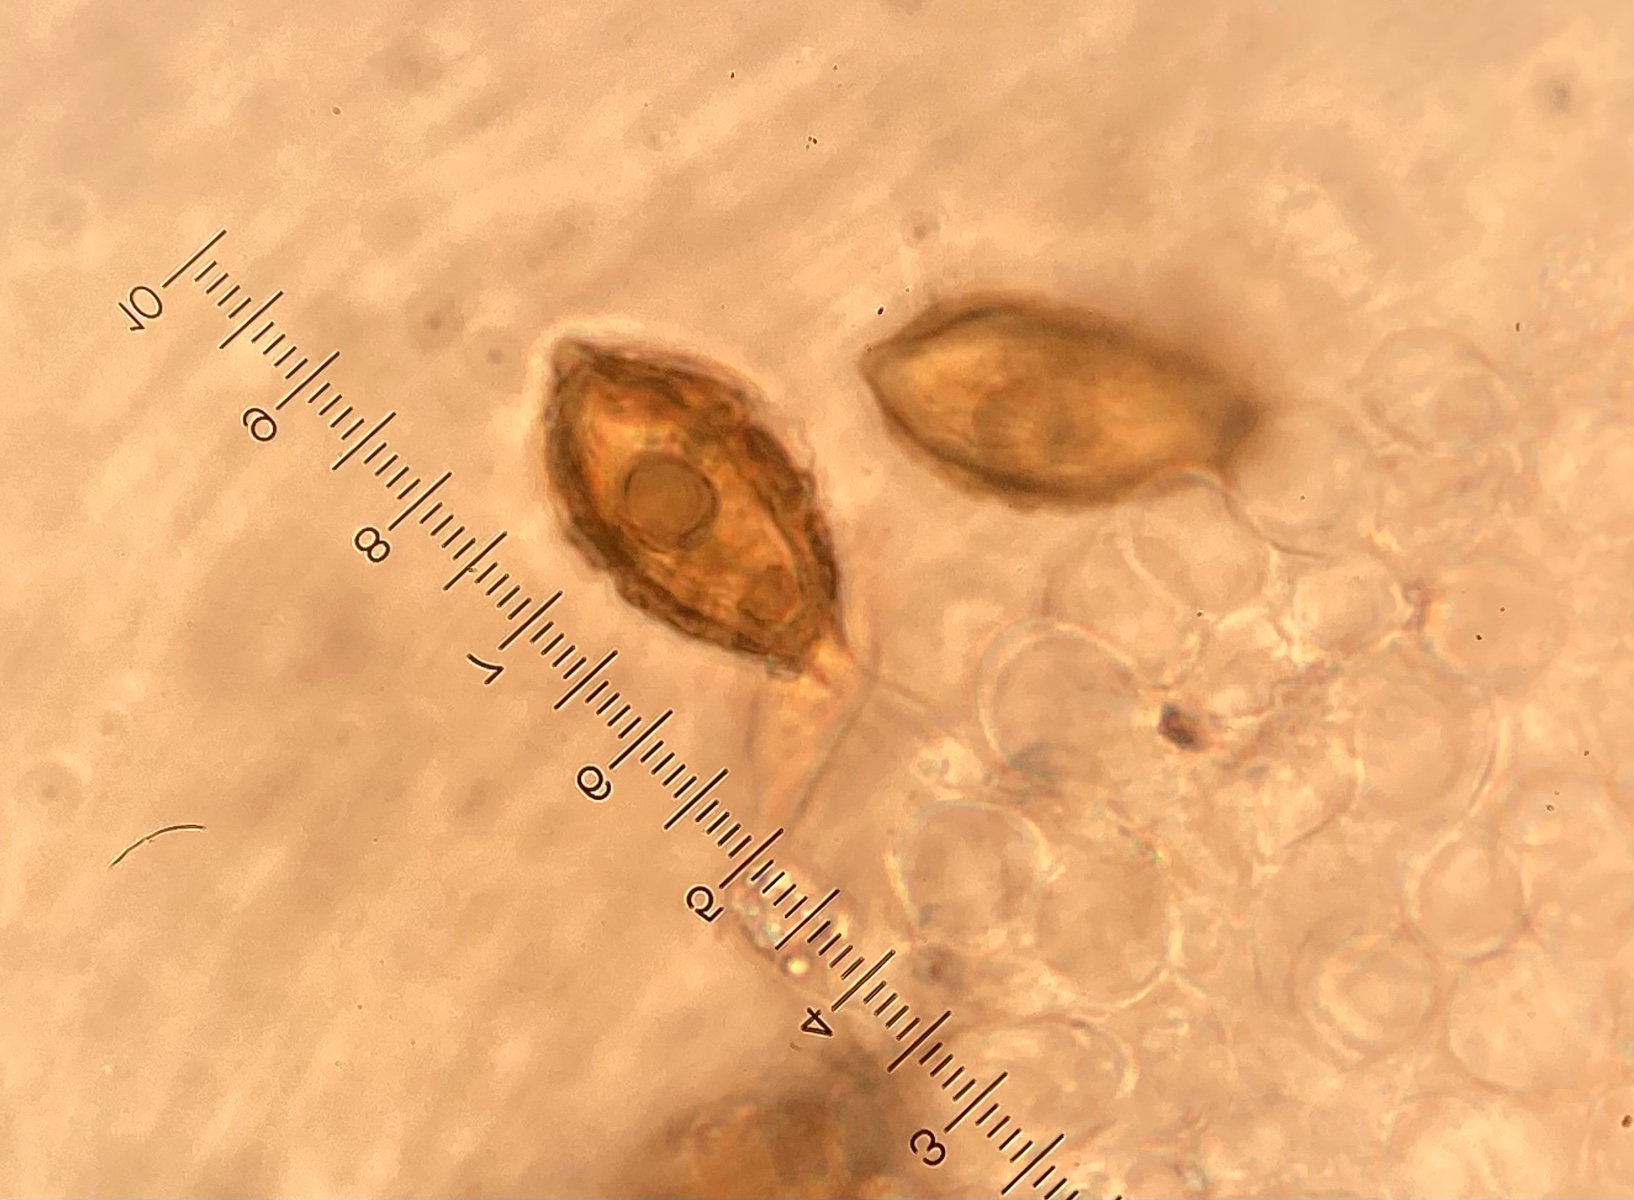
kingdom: Fungi
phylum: Basidiomycota
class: Agaricomycetes
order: Agaricales
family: Hymenogastraceae
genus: Hymenogaster
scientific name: Hymenogaster
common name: knoldtrøffel
